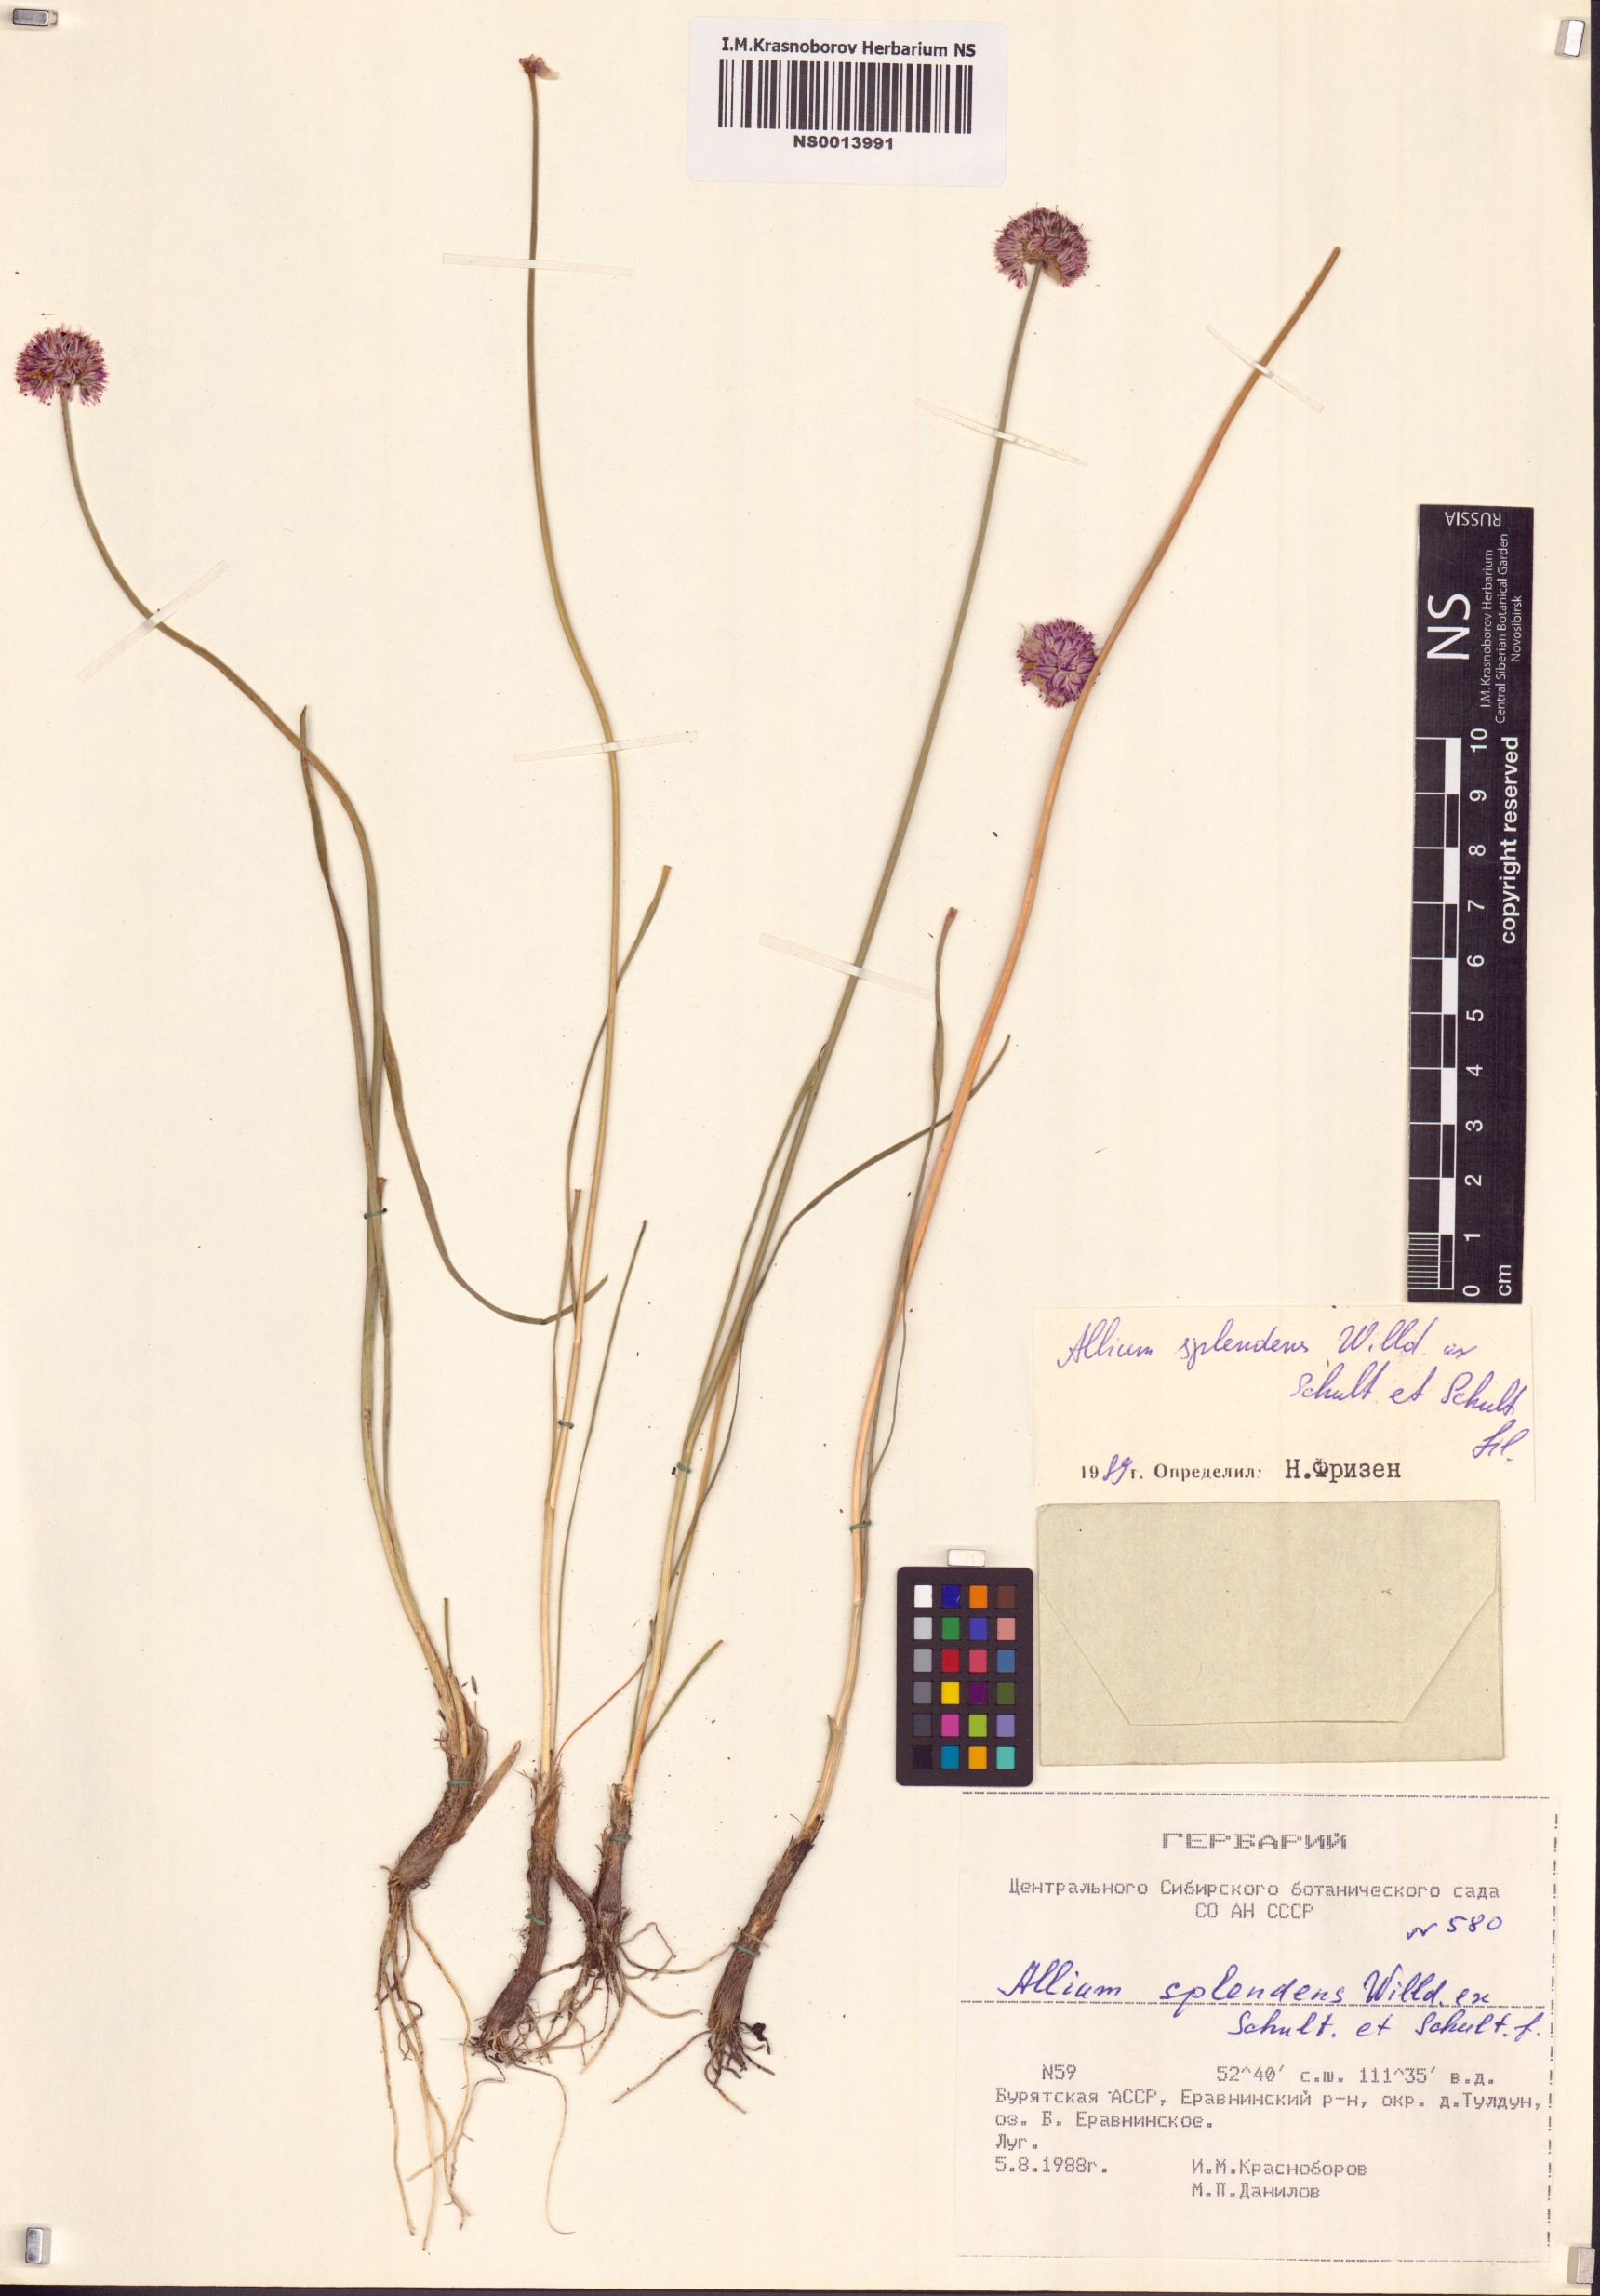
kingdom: Plantae
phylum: Tracheophyta
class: Liliopsida
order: Asparagales
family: Amaryllidaceae
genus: Allium
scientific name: Allium splendens
